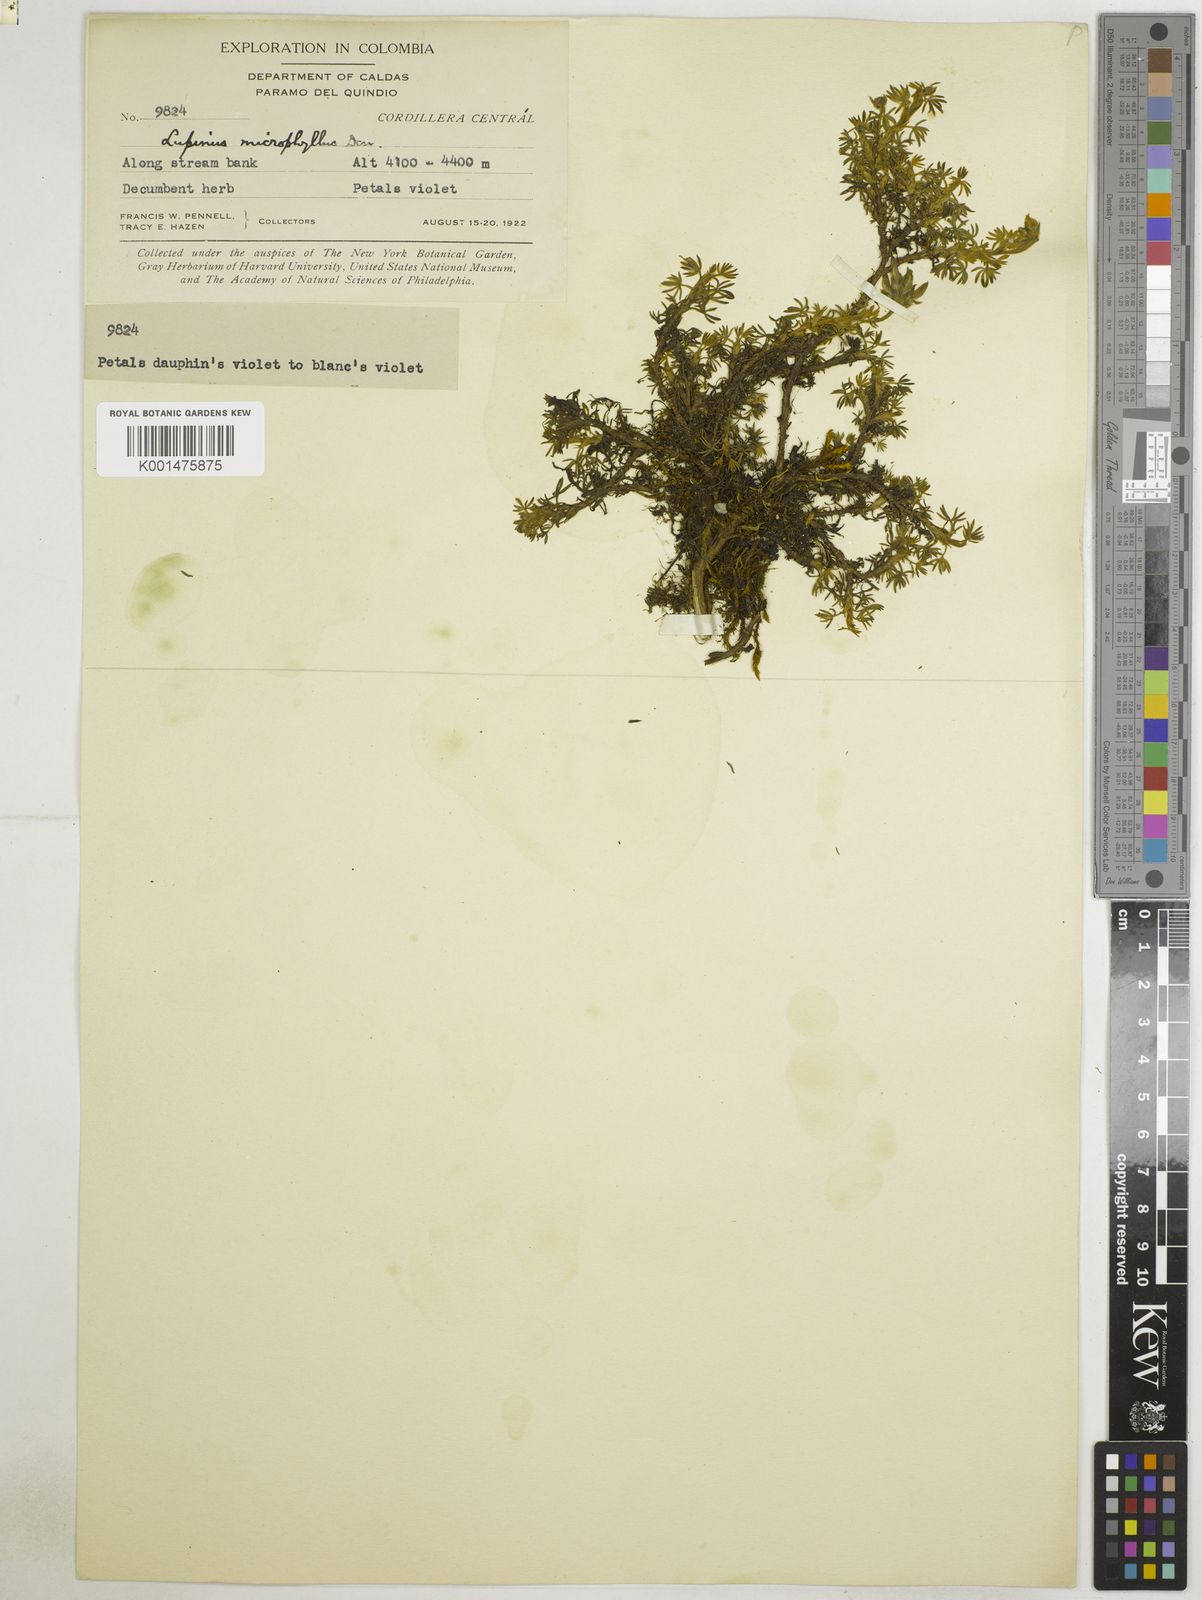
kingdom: Plantae
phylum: Tracheophyta
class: Magnoliopsida
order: Fabales
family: Fabaceae
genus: Lupinus
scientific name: Lupinus microphyllus
